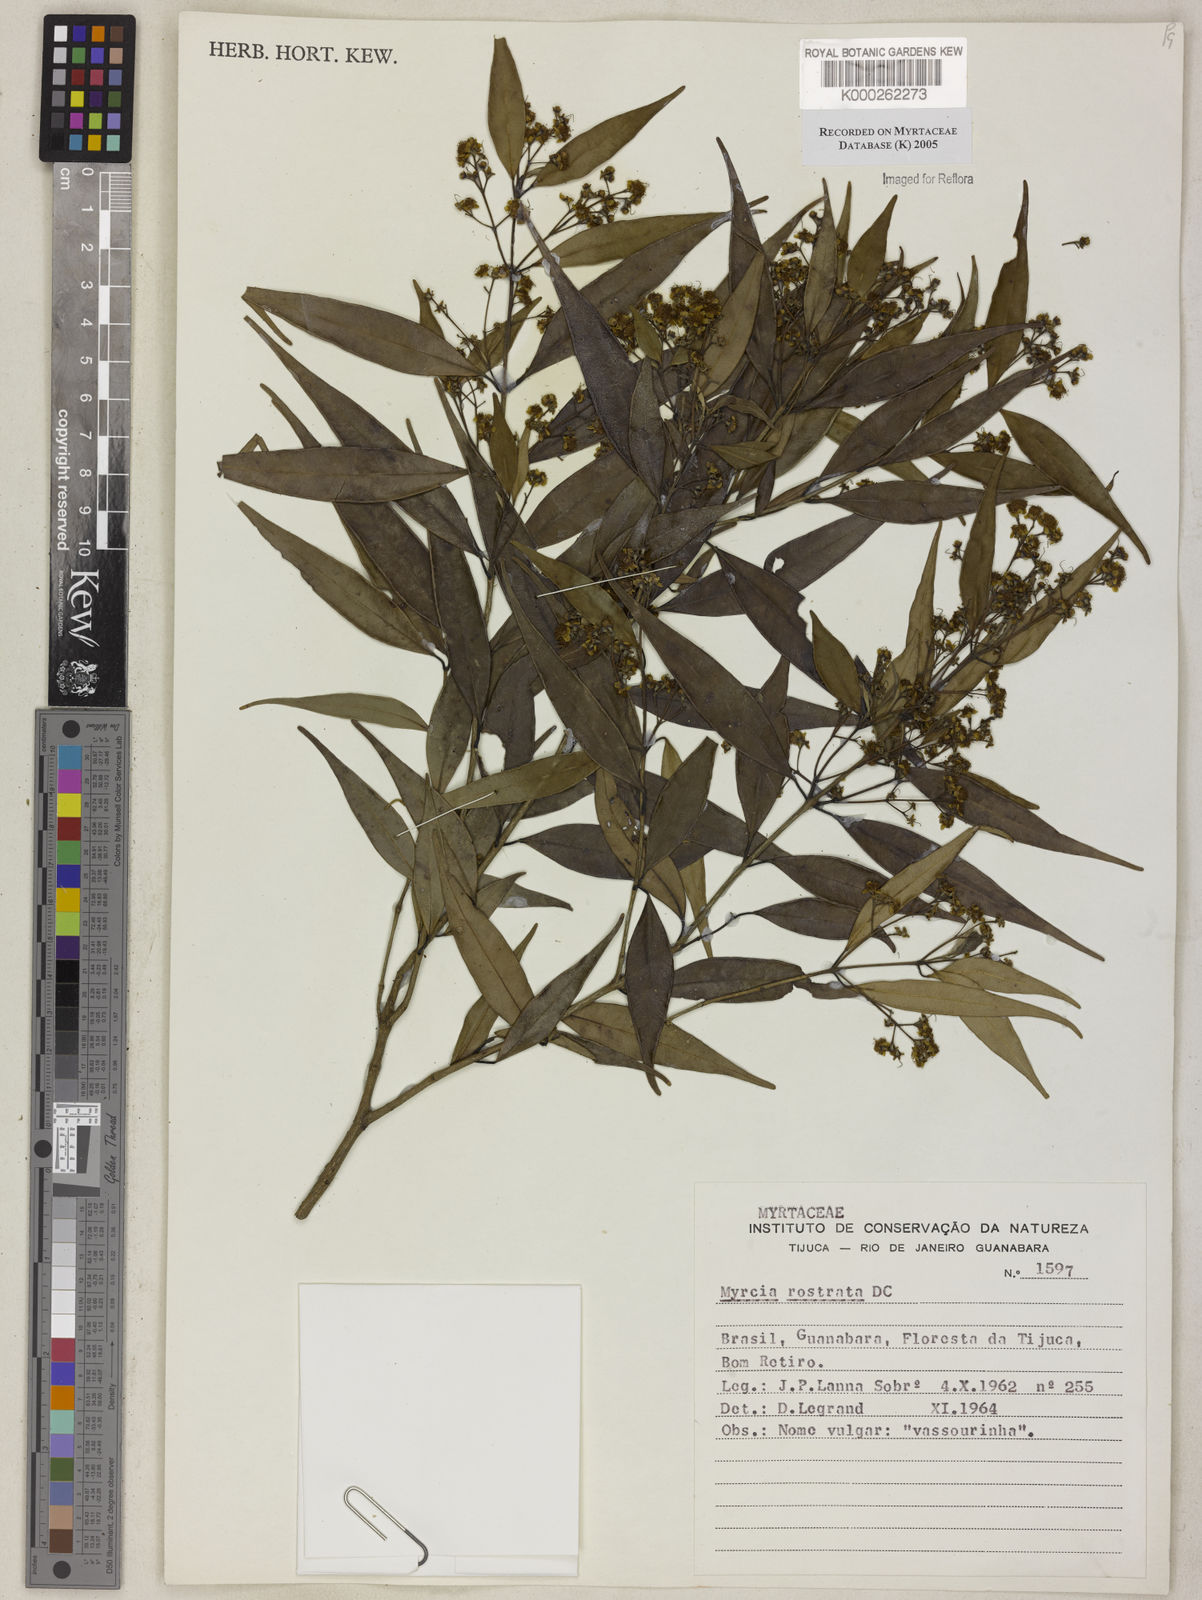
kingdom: Plantae
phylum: Tracheophyta
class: Magnoliopsida
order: Myrtales
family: Myrtaceae
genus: Myrcia
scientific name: Myrcia splendens
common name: Surinam cherry
